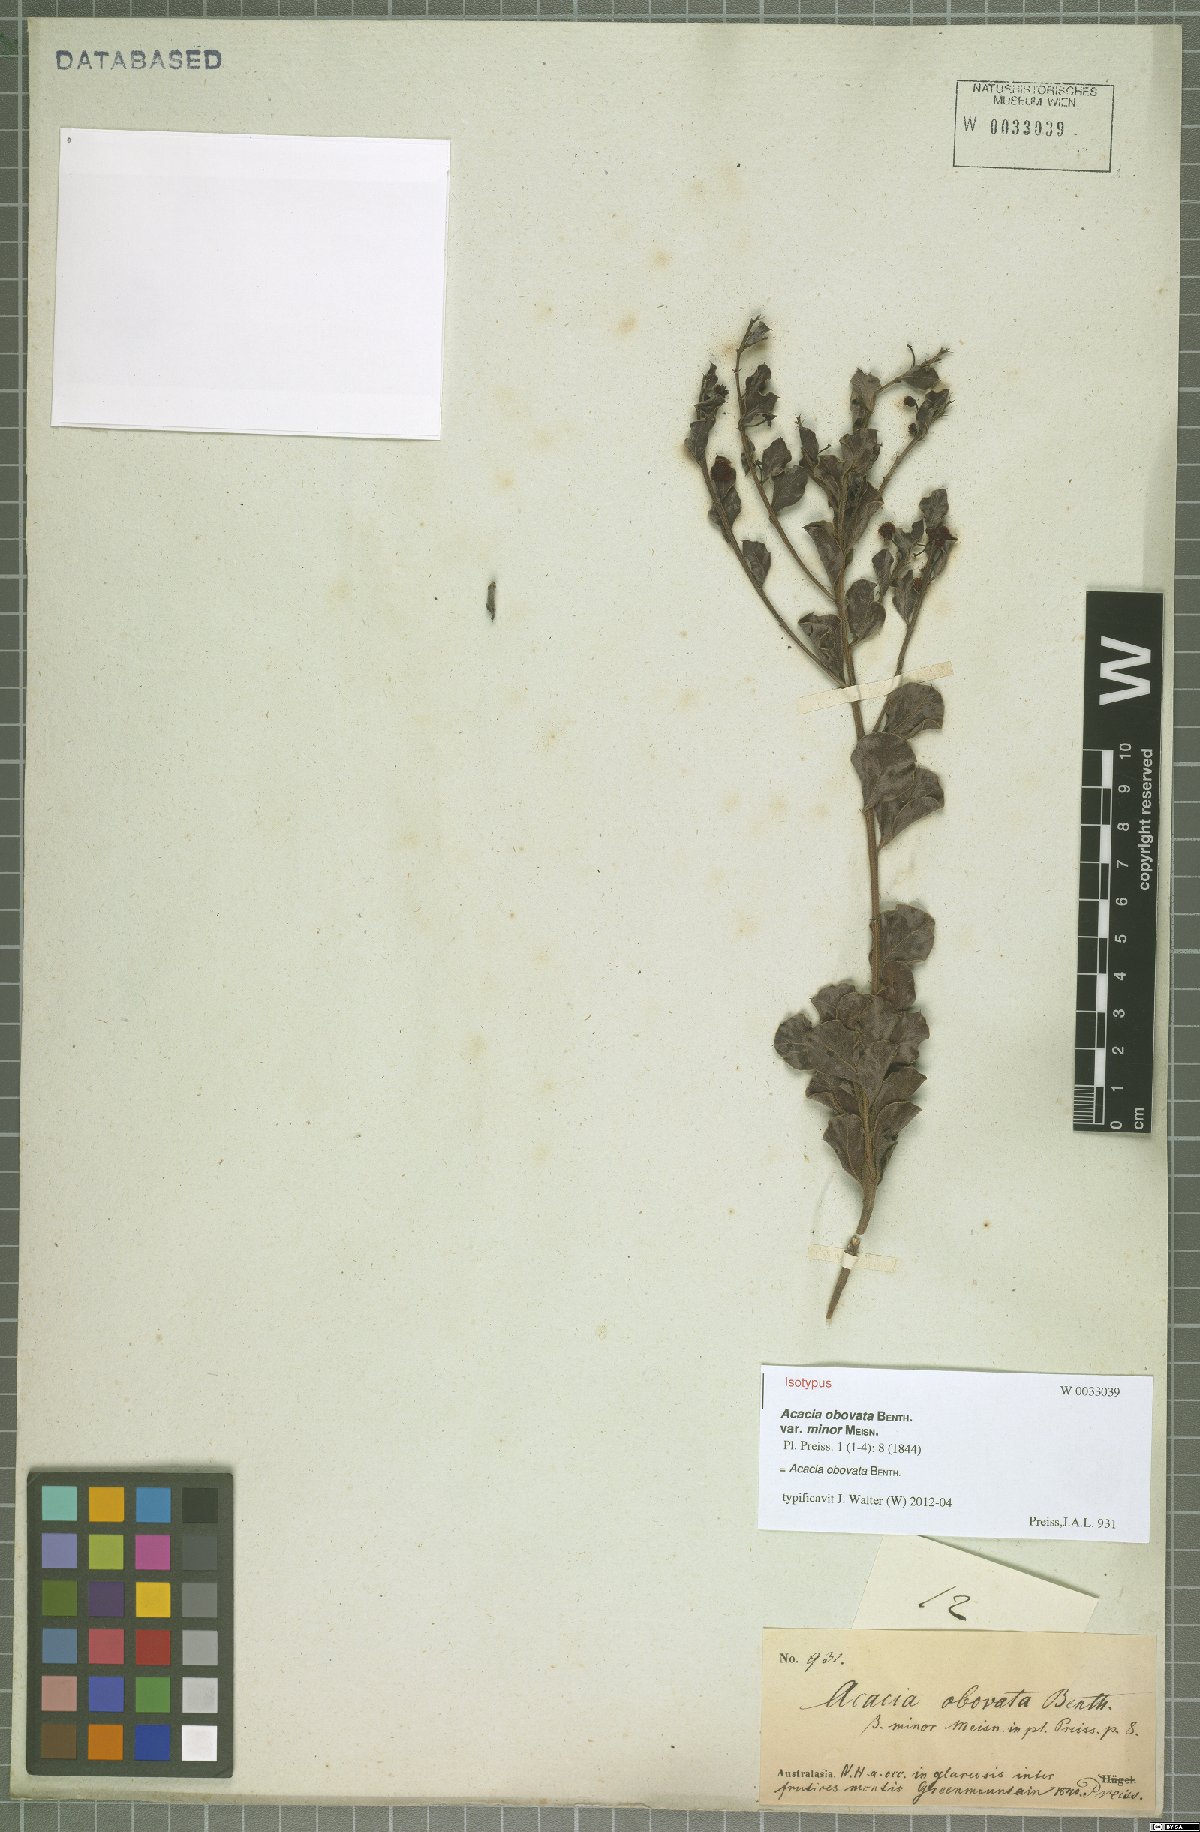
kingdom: Plantae
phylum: Tracheophyta
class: Magnoliopsida
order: Fabales
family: Fabaceae
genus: Acacia
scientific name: Acacia obovata
